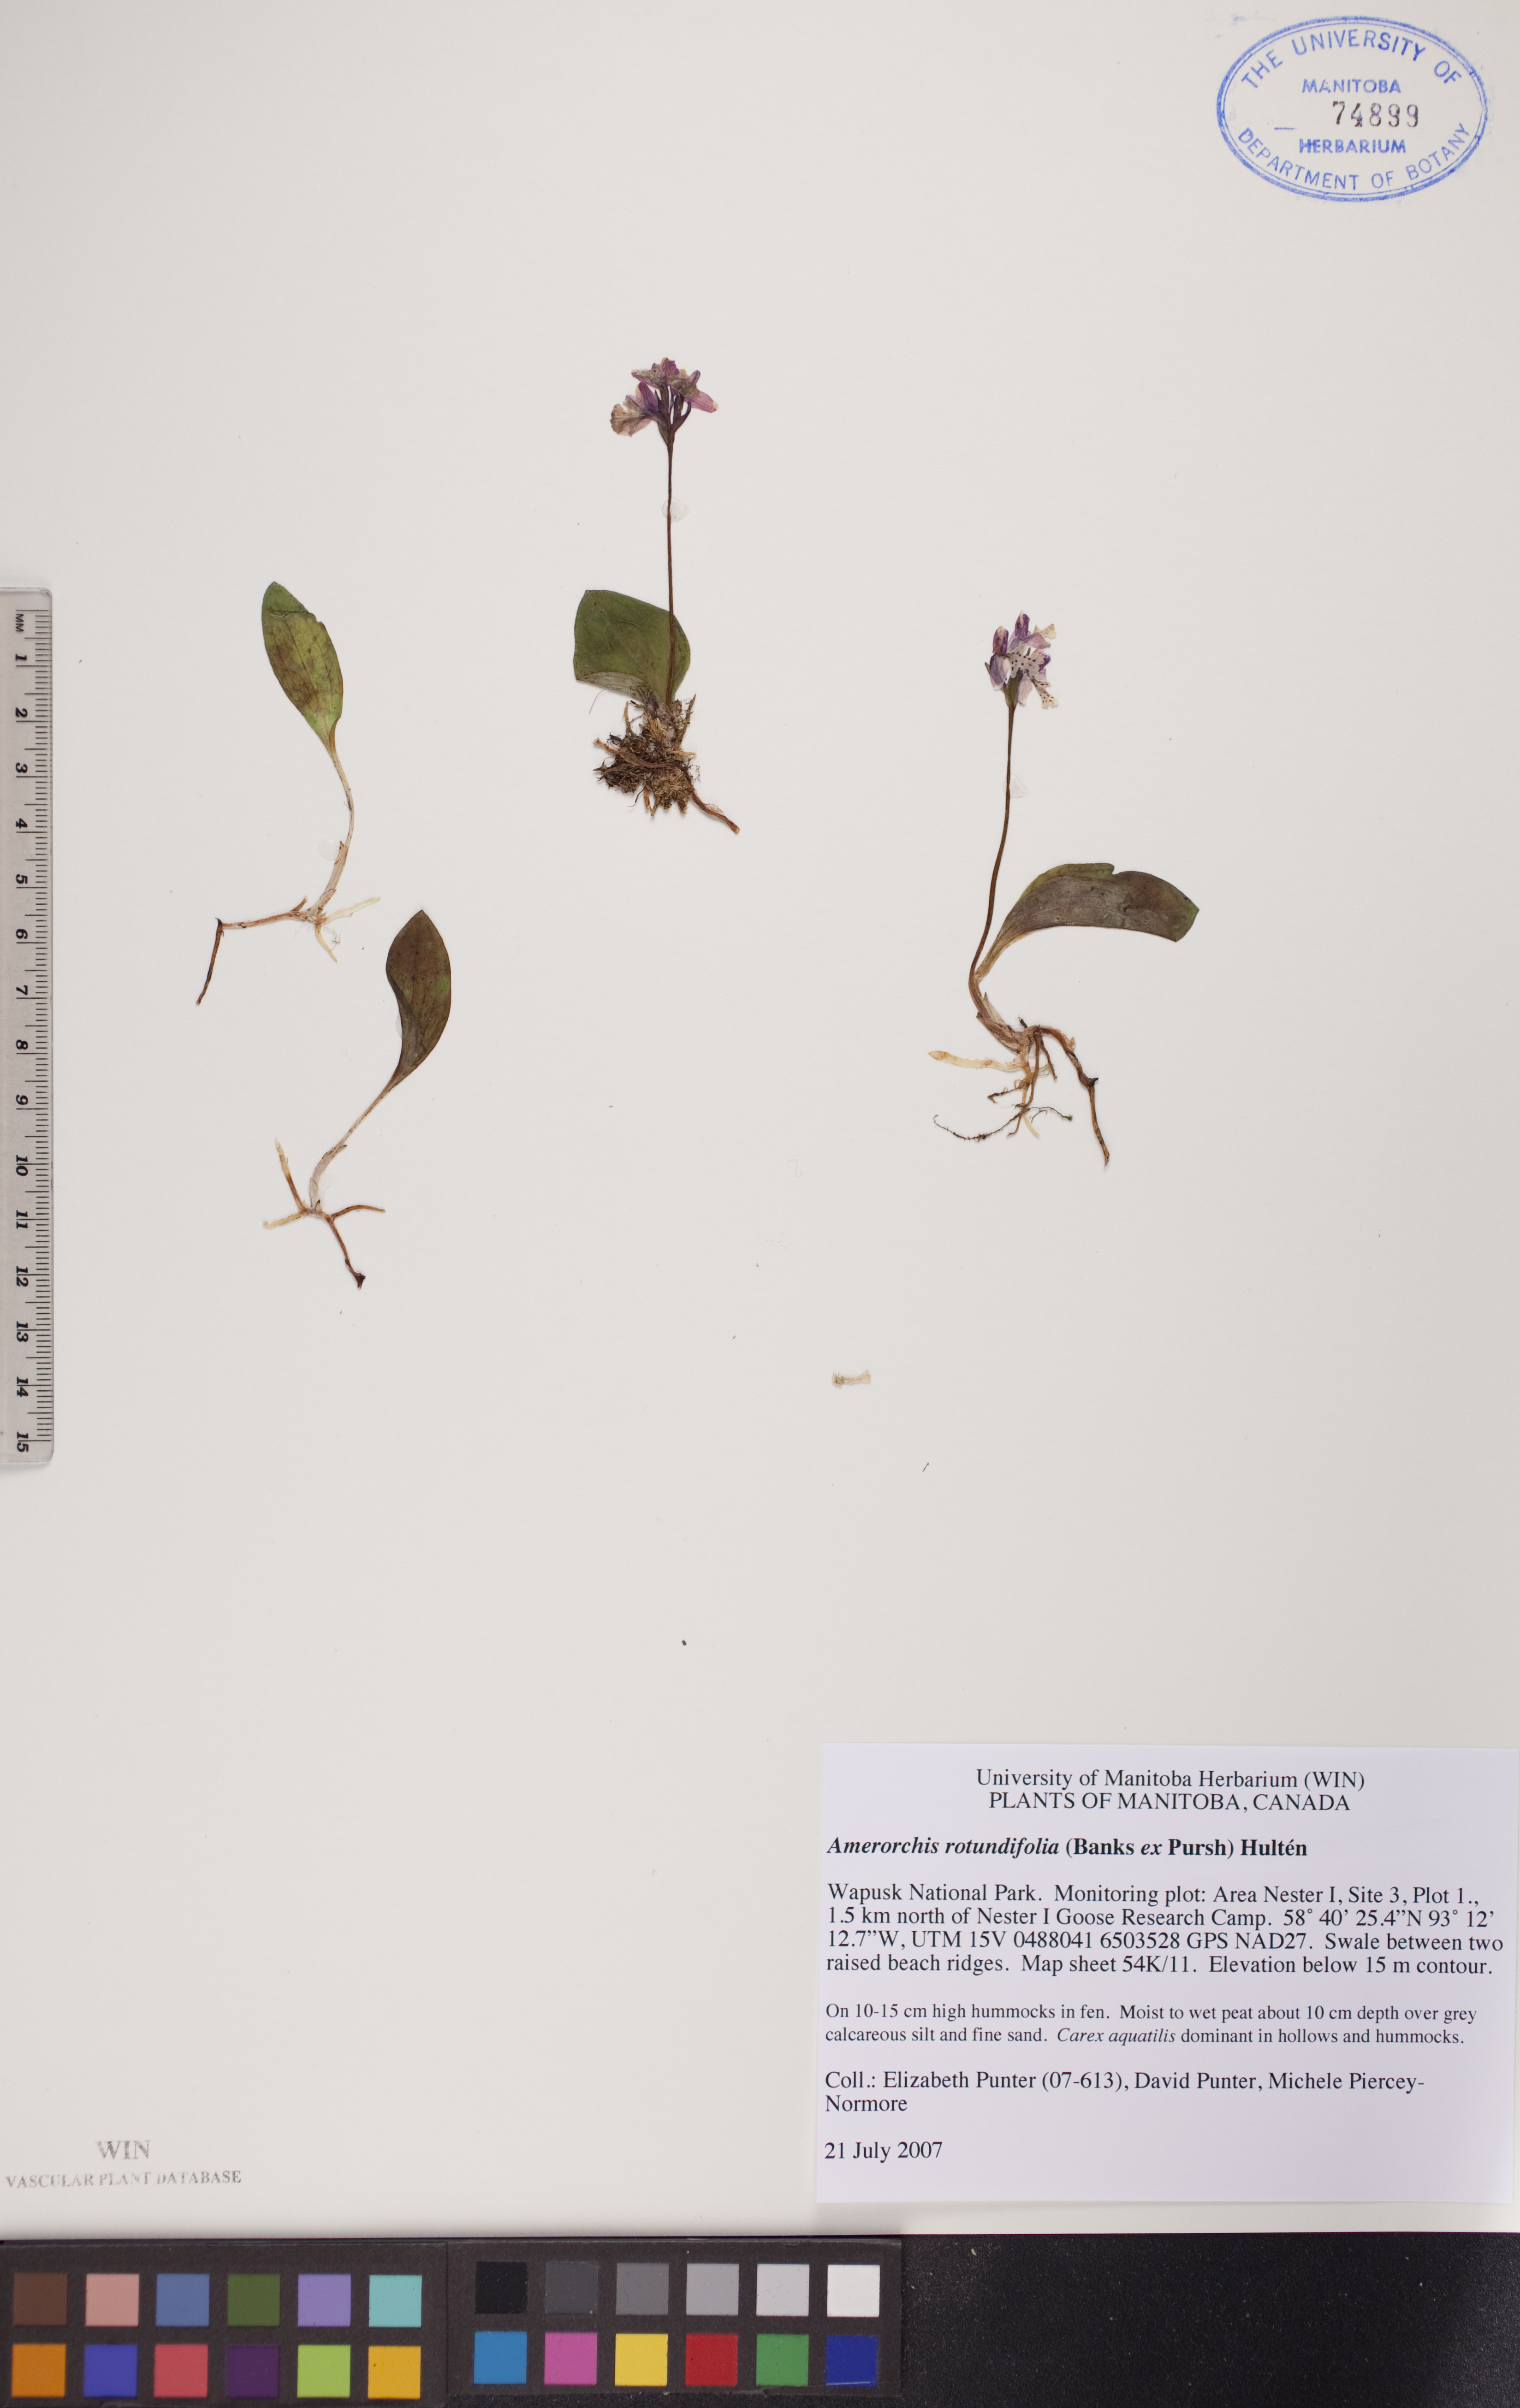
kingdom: Plantae
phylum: Tracheophyta
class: Liliopsida
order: Asparagales
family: Orchidaceae
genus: Galearis
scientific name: Galearis rotundifolia
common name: One-leaved orchis
